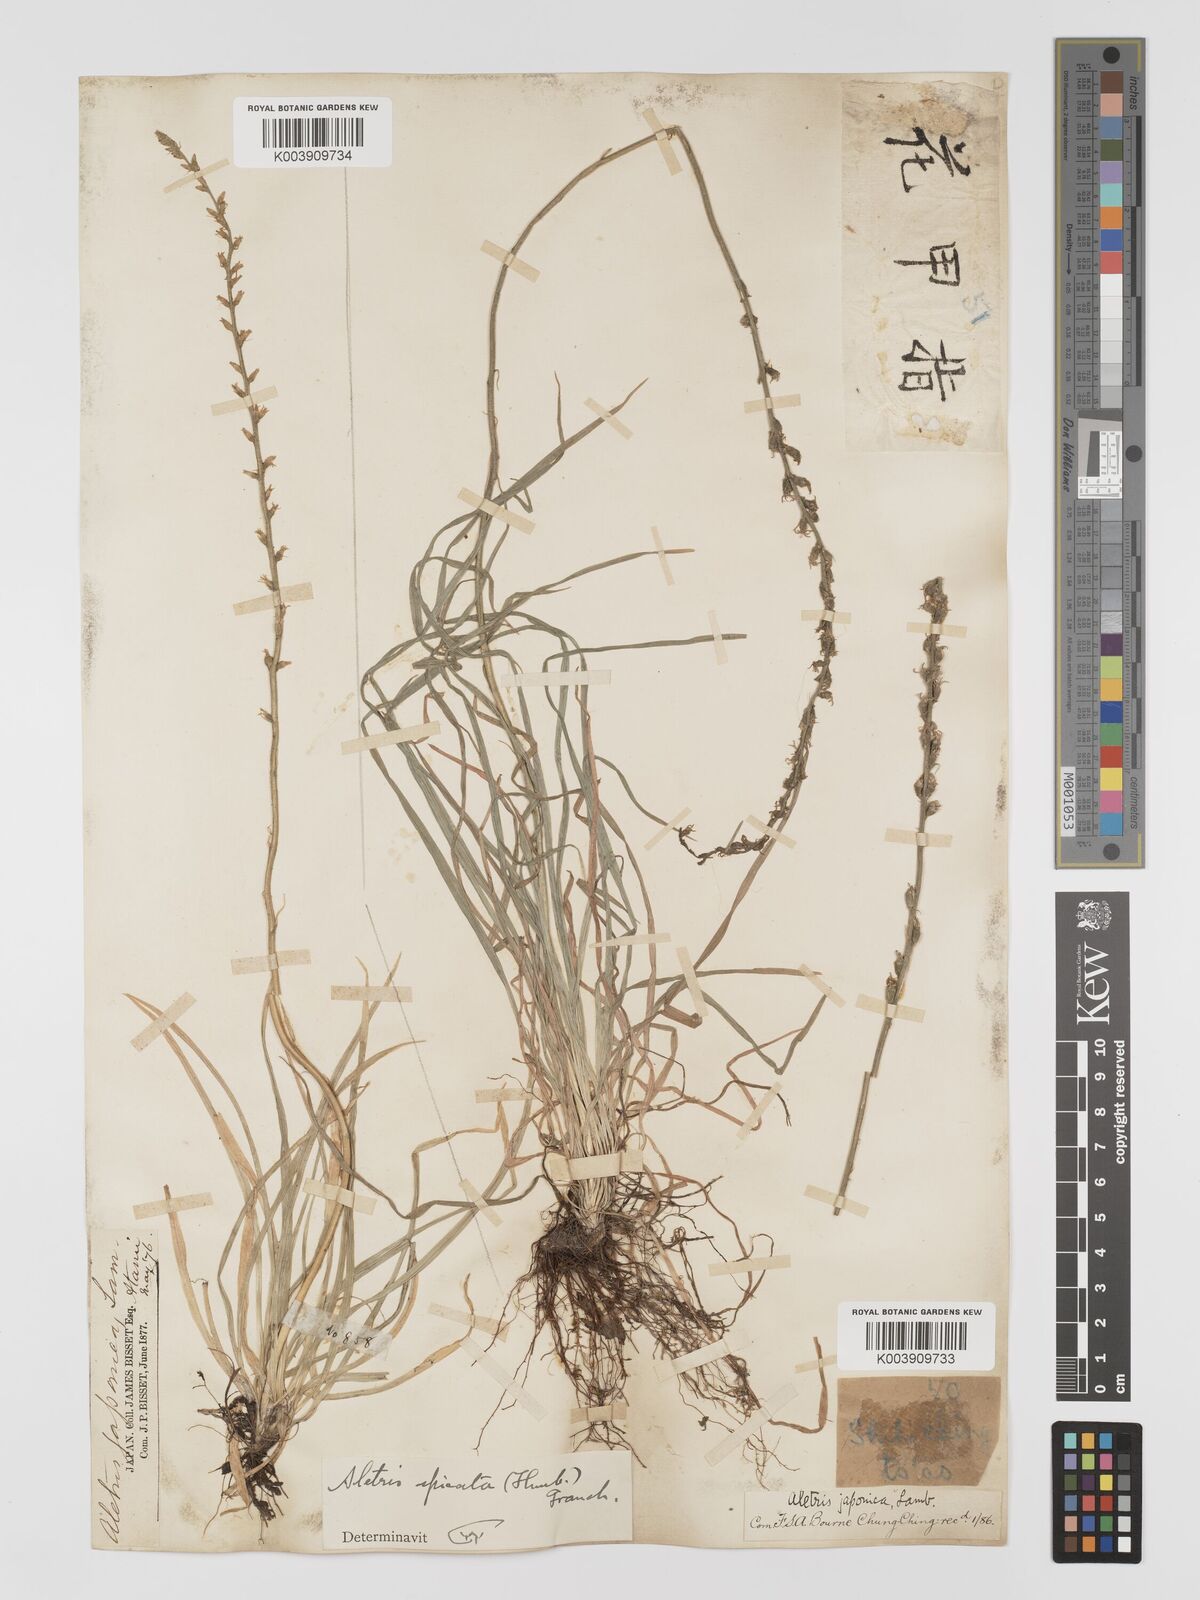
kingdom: Plantae
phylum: Tracheophyta
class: Liliopsida
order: Dioscoreales
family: Nartheciaceae
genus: Aletris
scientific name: Aletris spicata
